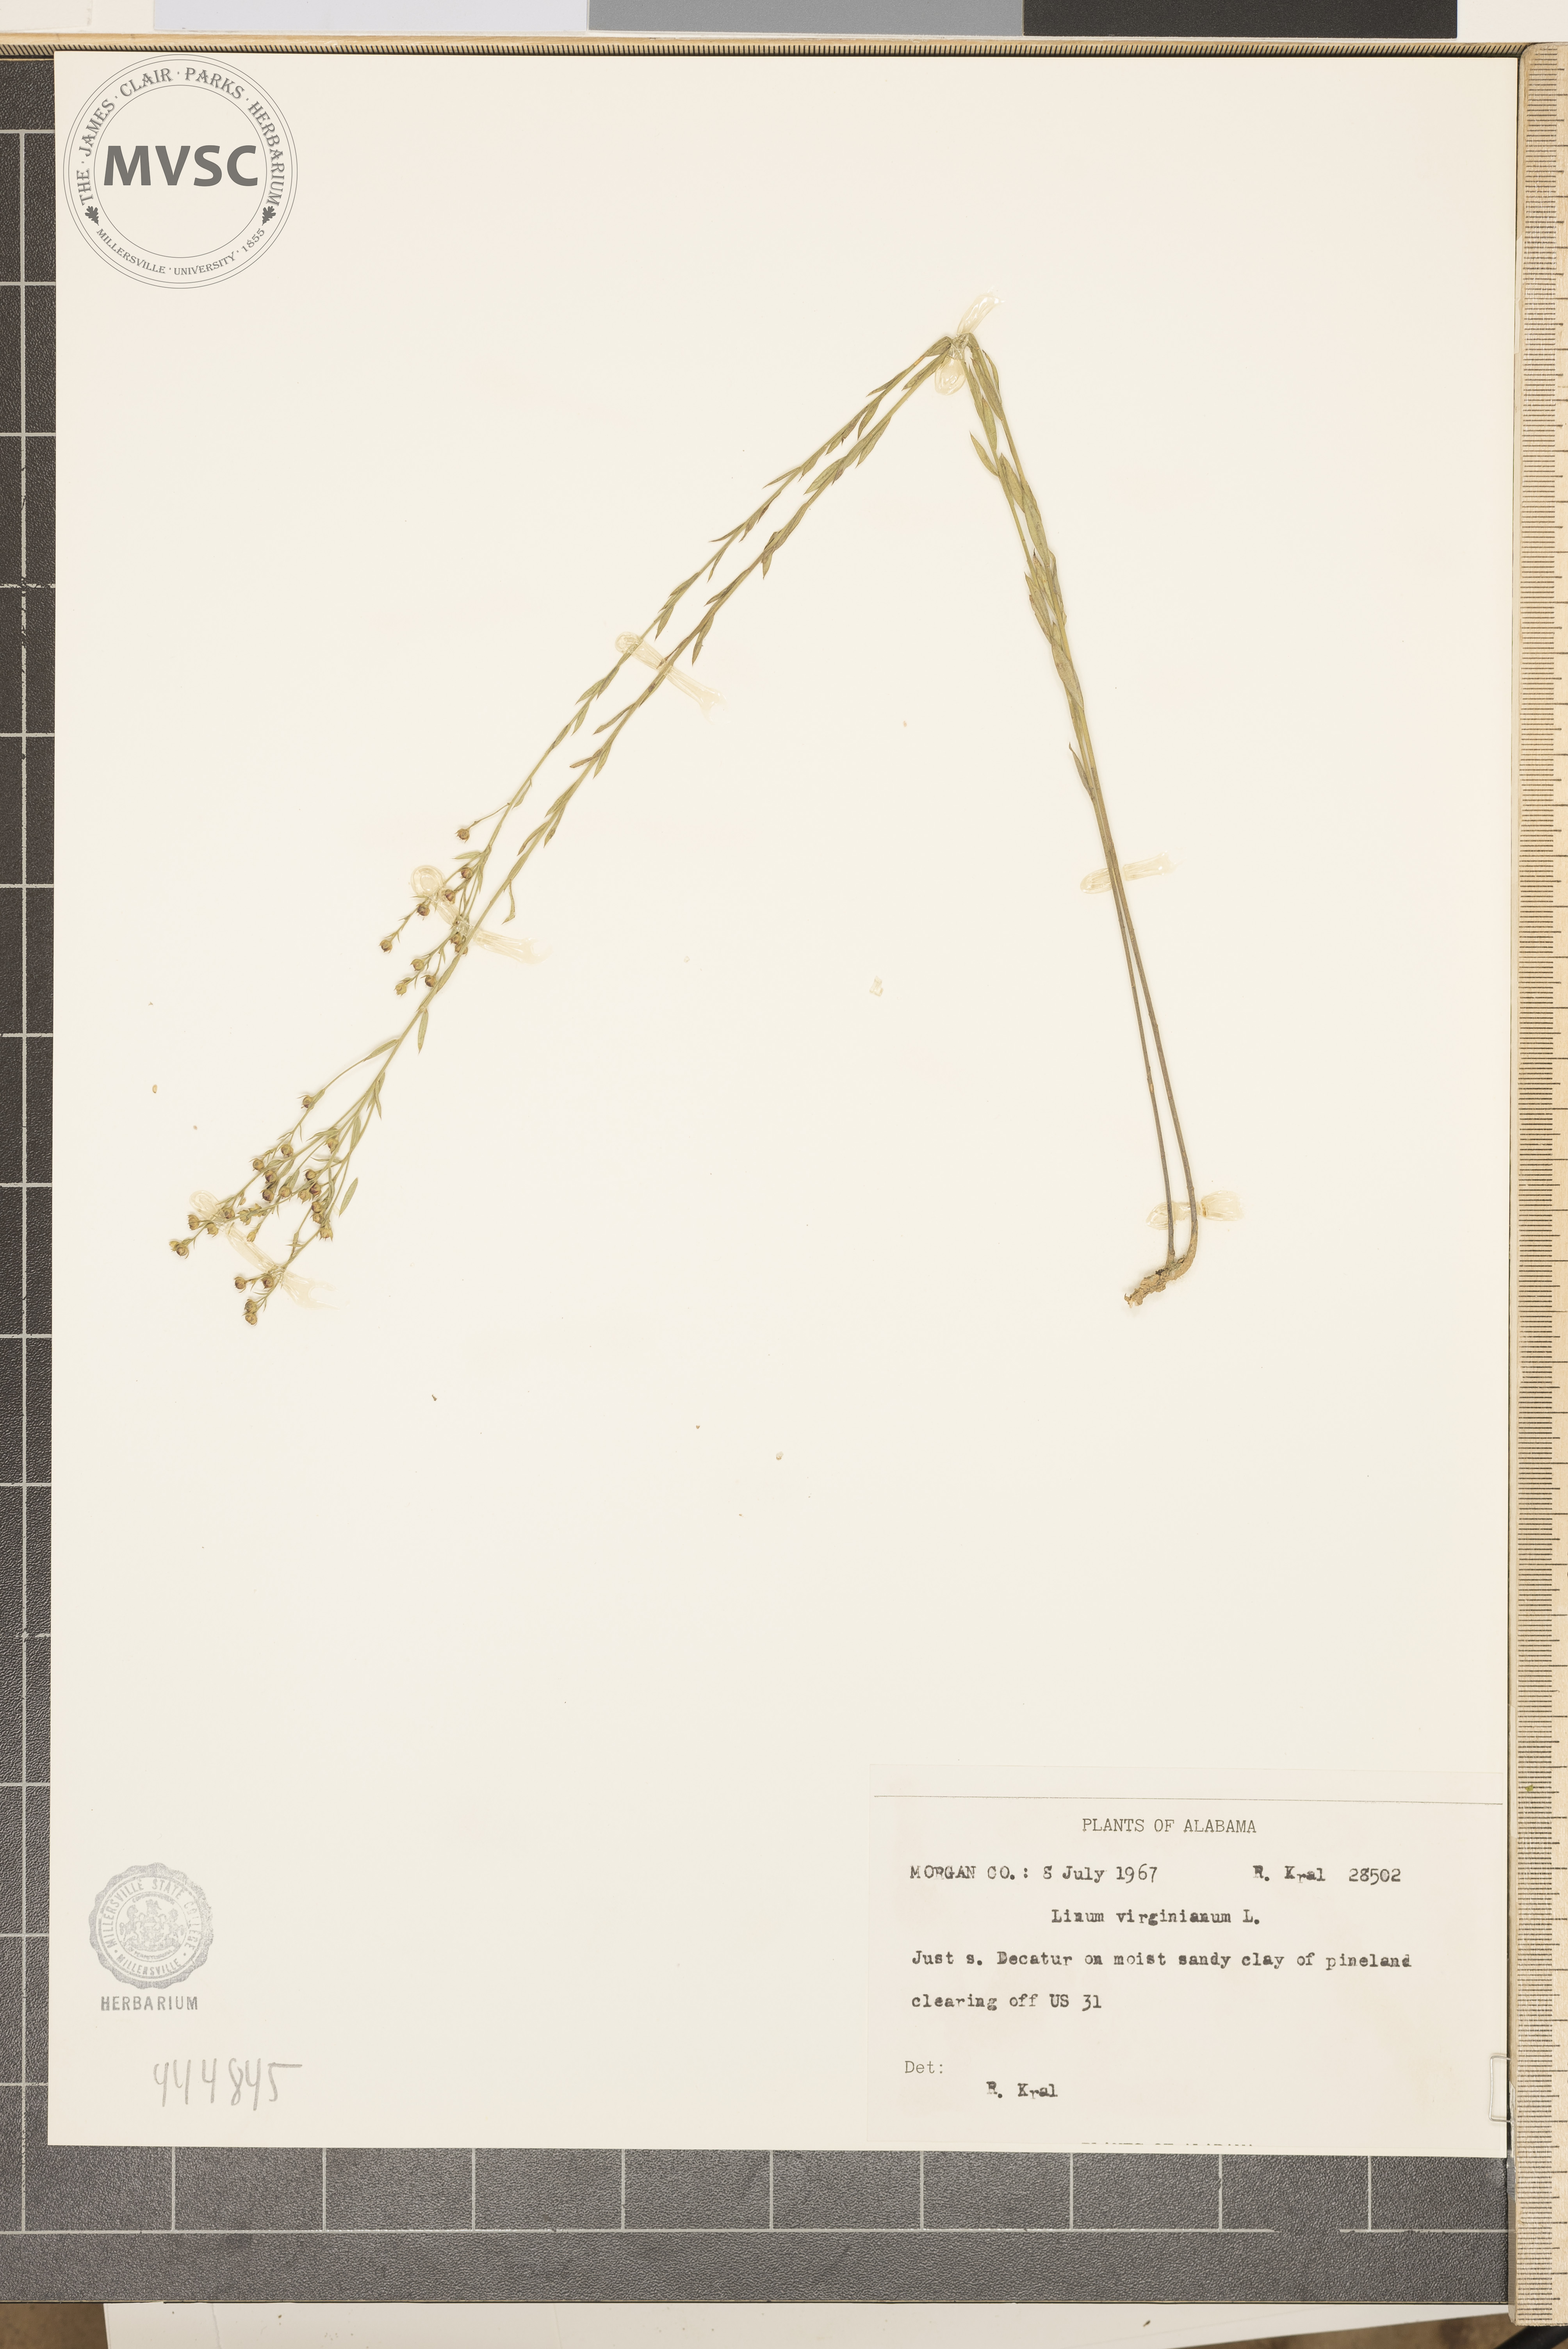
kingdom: Plantae
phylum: Tracheophyta
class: Magnoliopsida
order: Malpighiales
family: Linaceae
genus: Linum
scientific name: Linum virginianum
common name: Slender yellow flax
